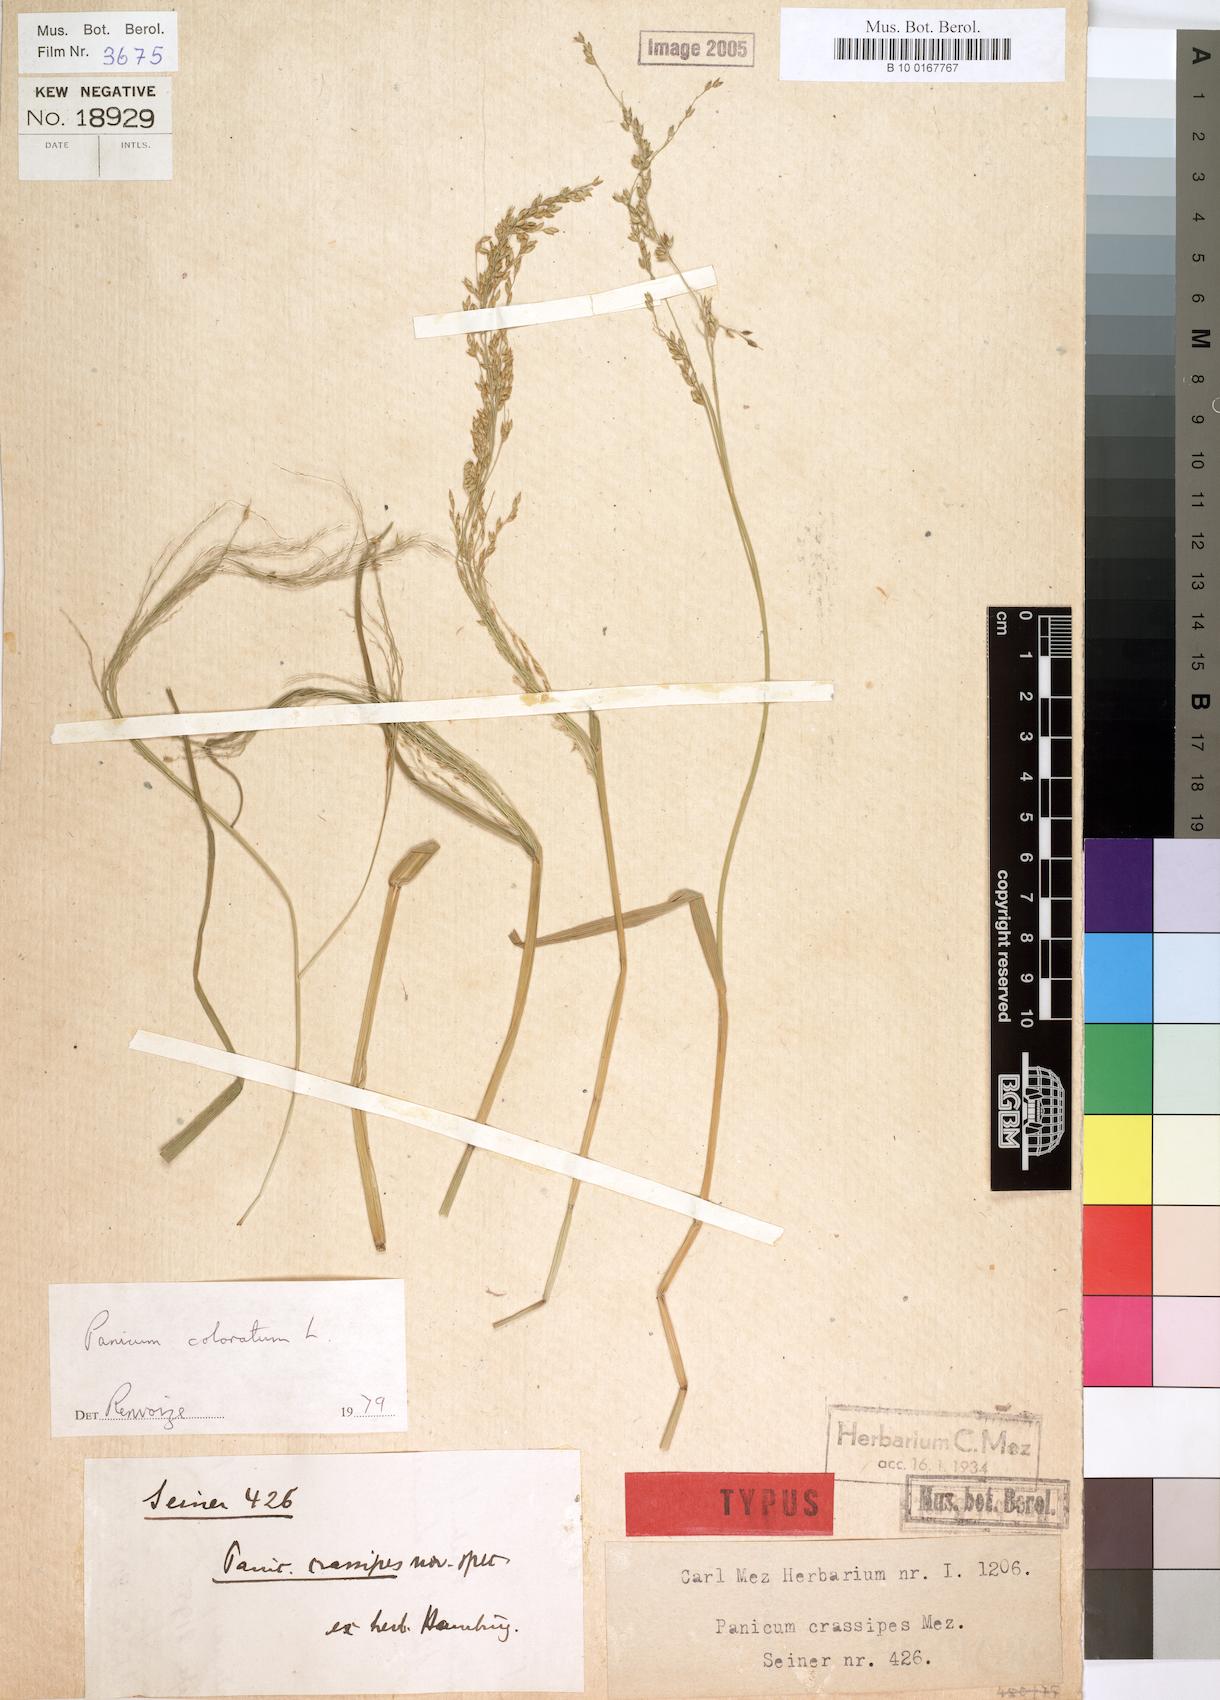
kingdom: Plantae
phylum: Tracheophyta
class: Liliopsida
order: Poales
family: Poaceae
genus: Panicum
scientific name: Panicum coloratum
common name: Kleingrass
